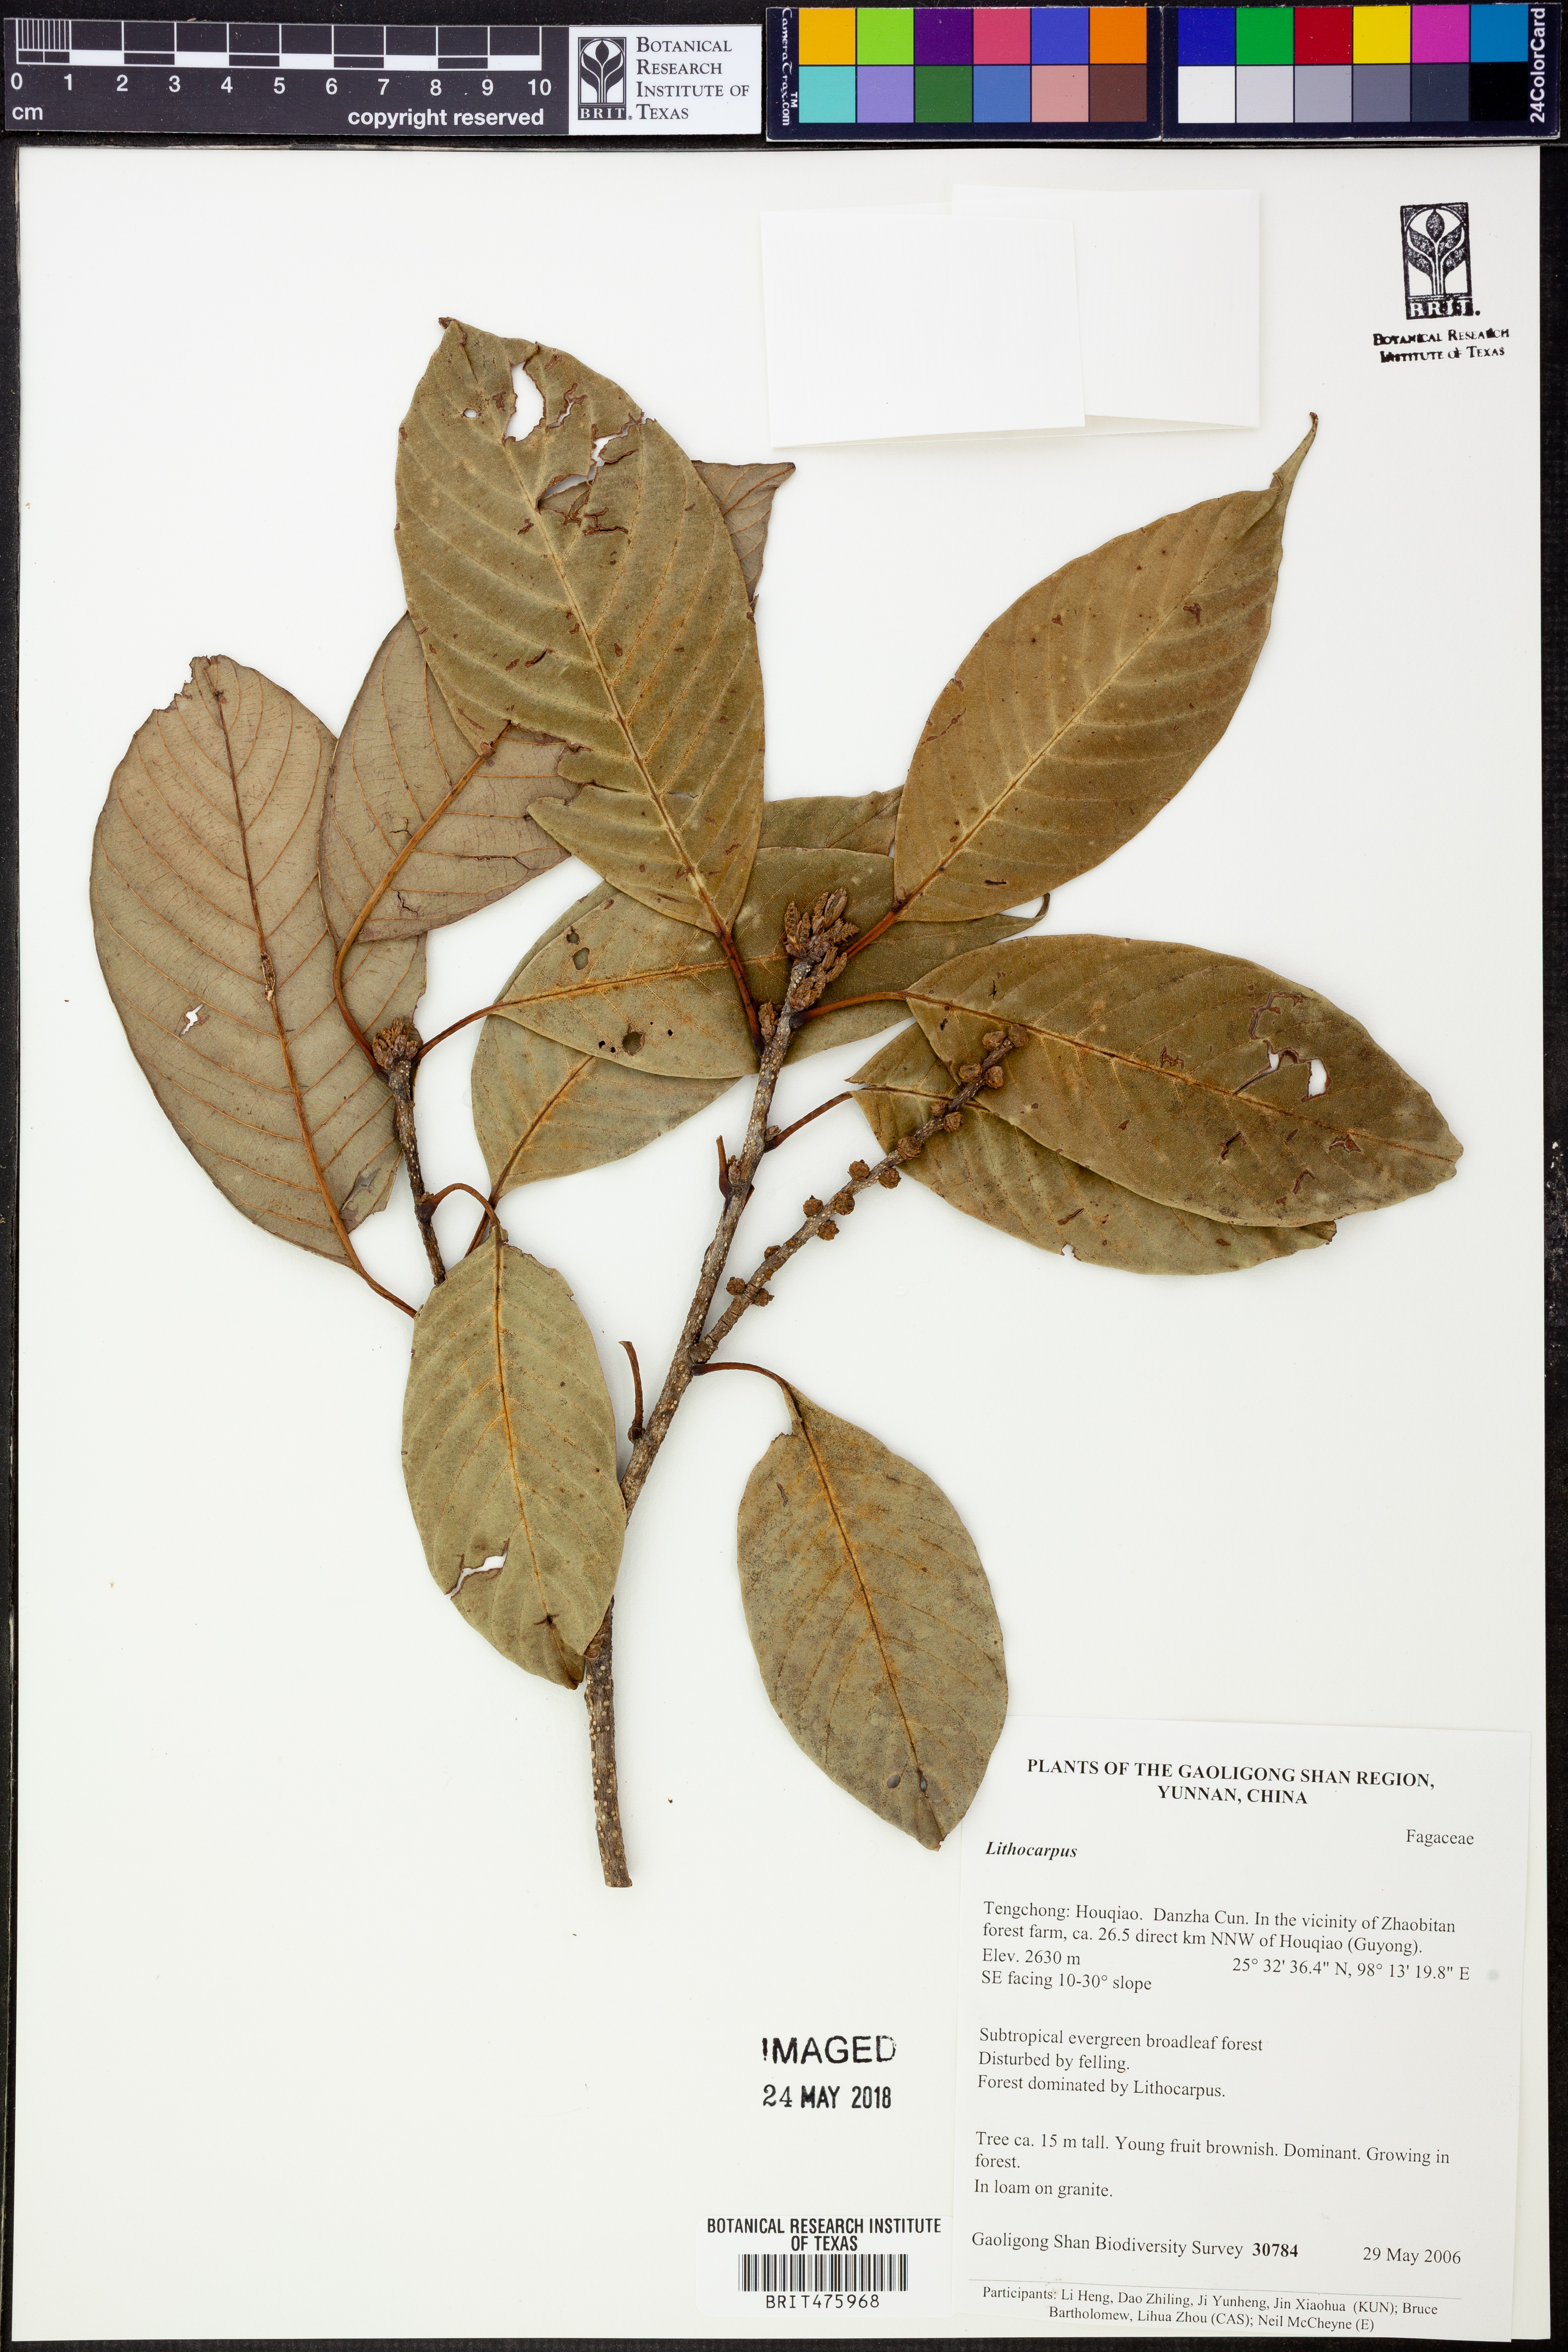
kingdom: Plantae
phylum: Tracheophyta
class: Magnoliopsida
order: Fagales
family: Fagaceae
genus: Lithocarpus
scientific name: Lithocarpus
